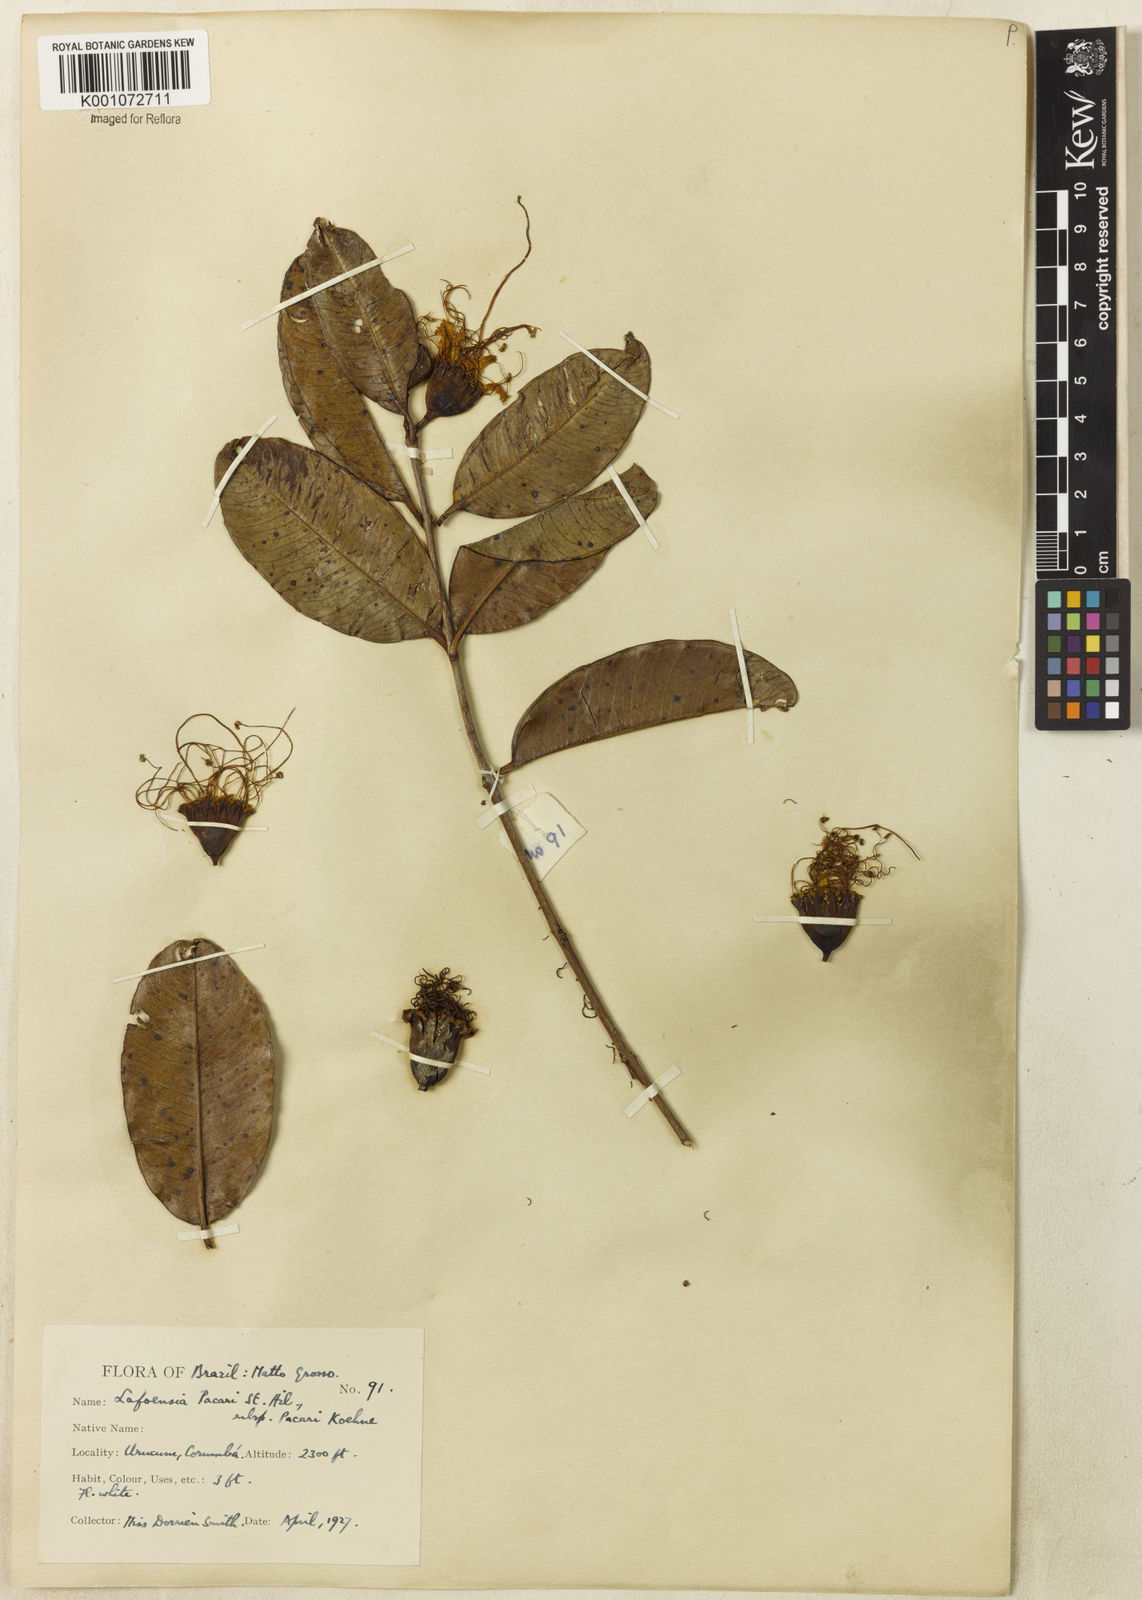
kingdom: Plantae
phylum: Tracheophyta
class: Magnoliopsida
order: Myrtales
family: Lythraceae
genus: Lafoensia
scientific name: Lafoensia pacari
